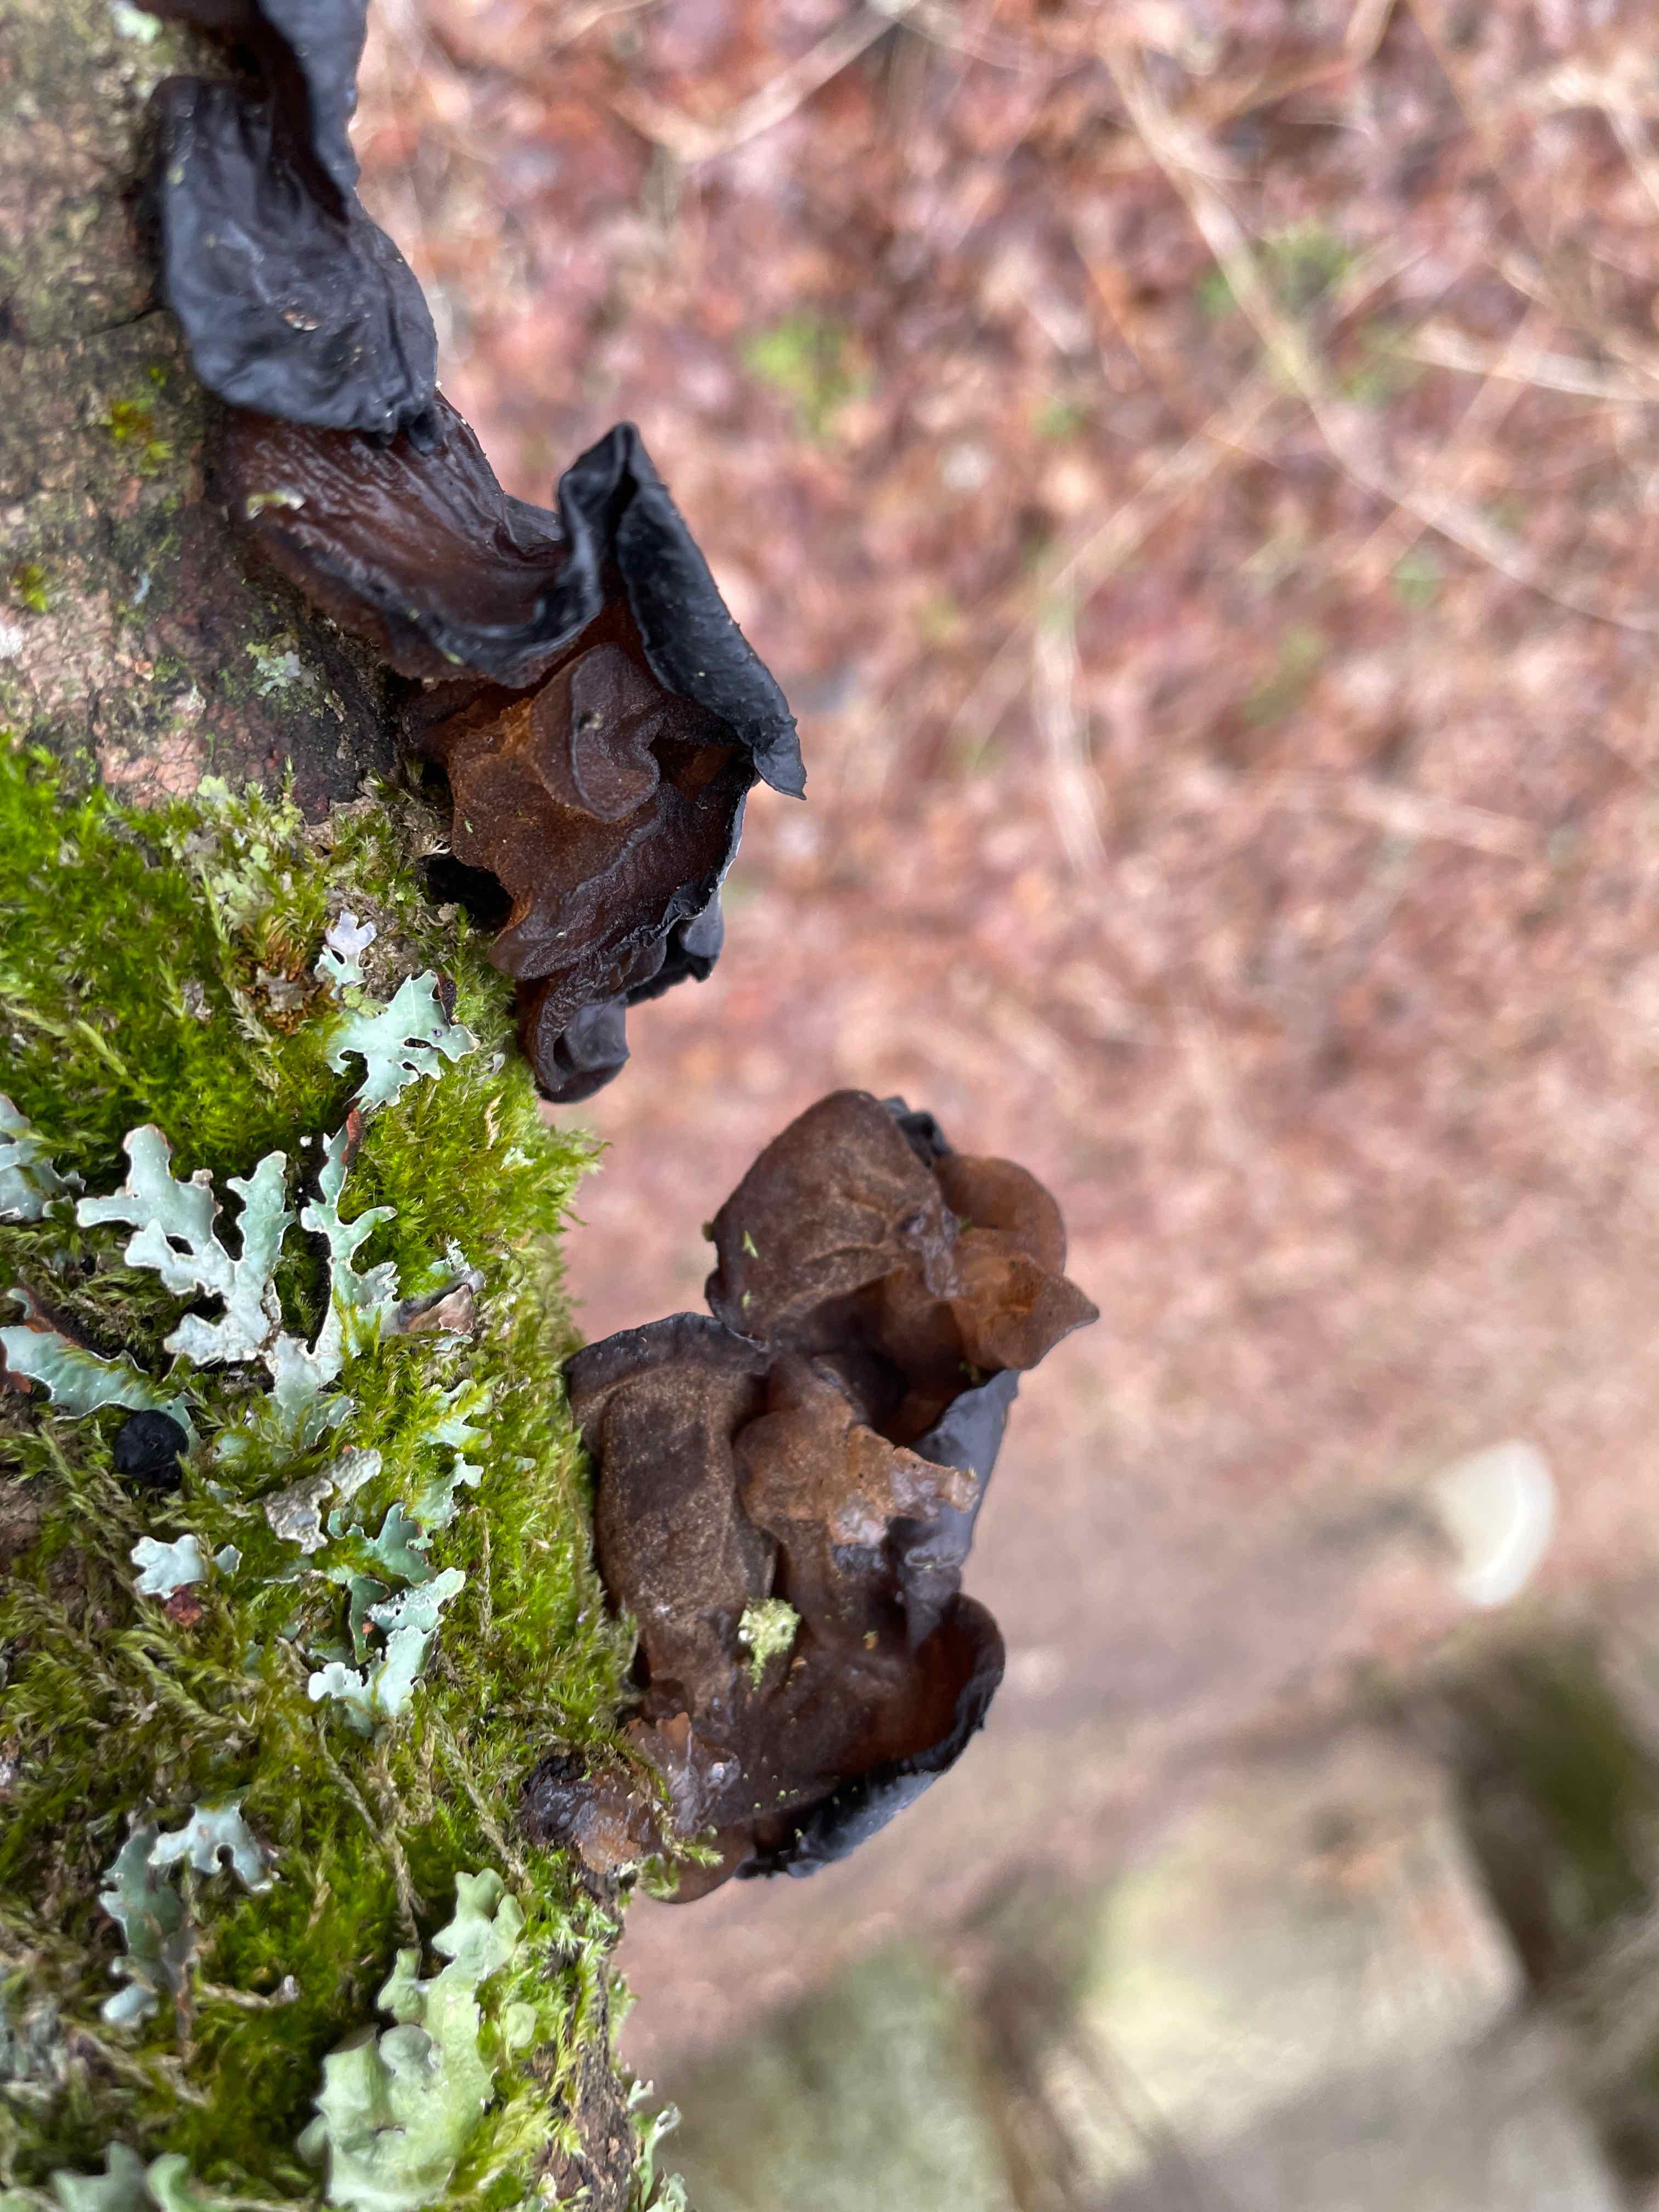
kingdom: Fungi
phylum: Basidiomycota
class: Agaricomycetes
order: Auriculariales
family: Auriculariaceae
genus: Exidia
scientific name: Exidia glandulosa
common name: ege-bævretop
